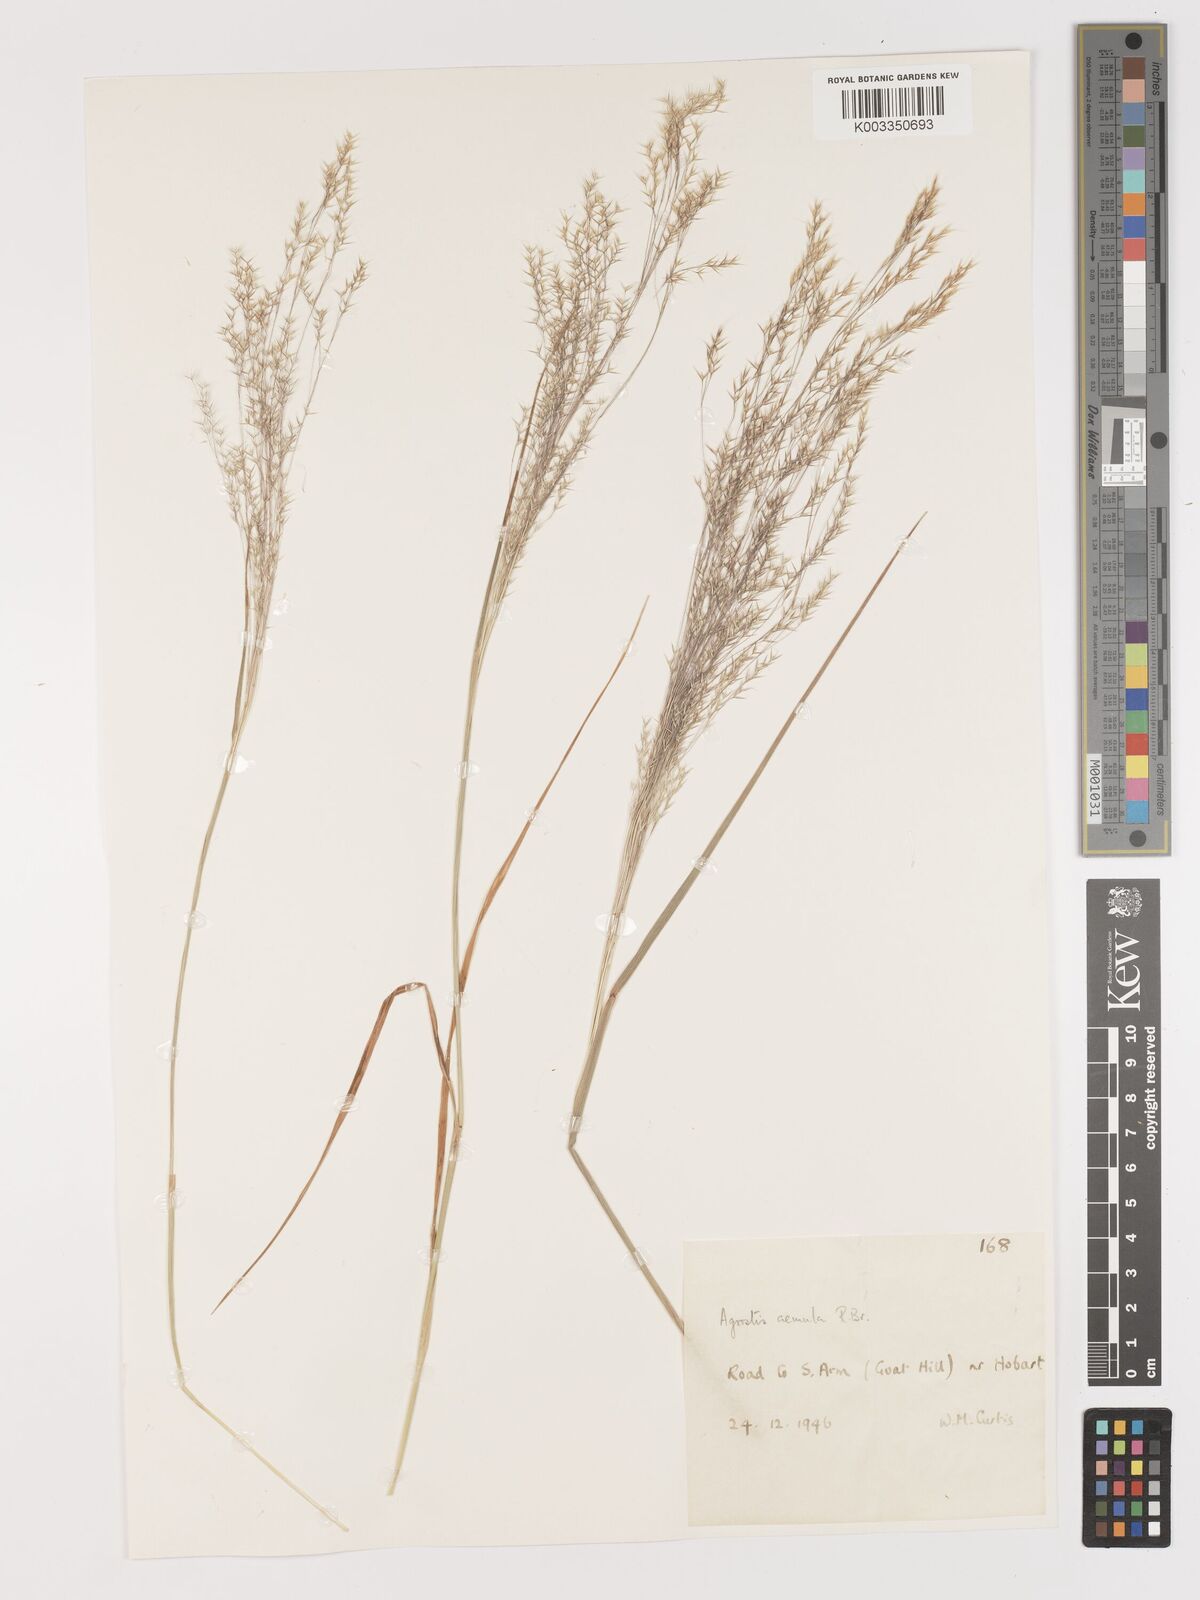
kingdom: Plantae
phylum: Tracheophyta
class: Liliopsida
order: Poales
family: Poaceae
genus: Lachnagrostis
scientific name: Lachnagrostis aemula
